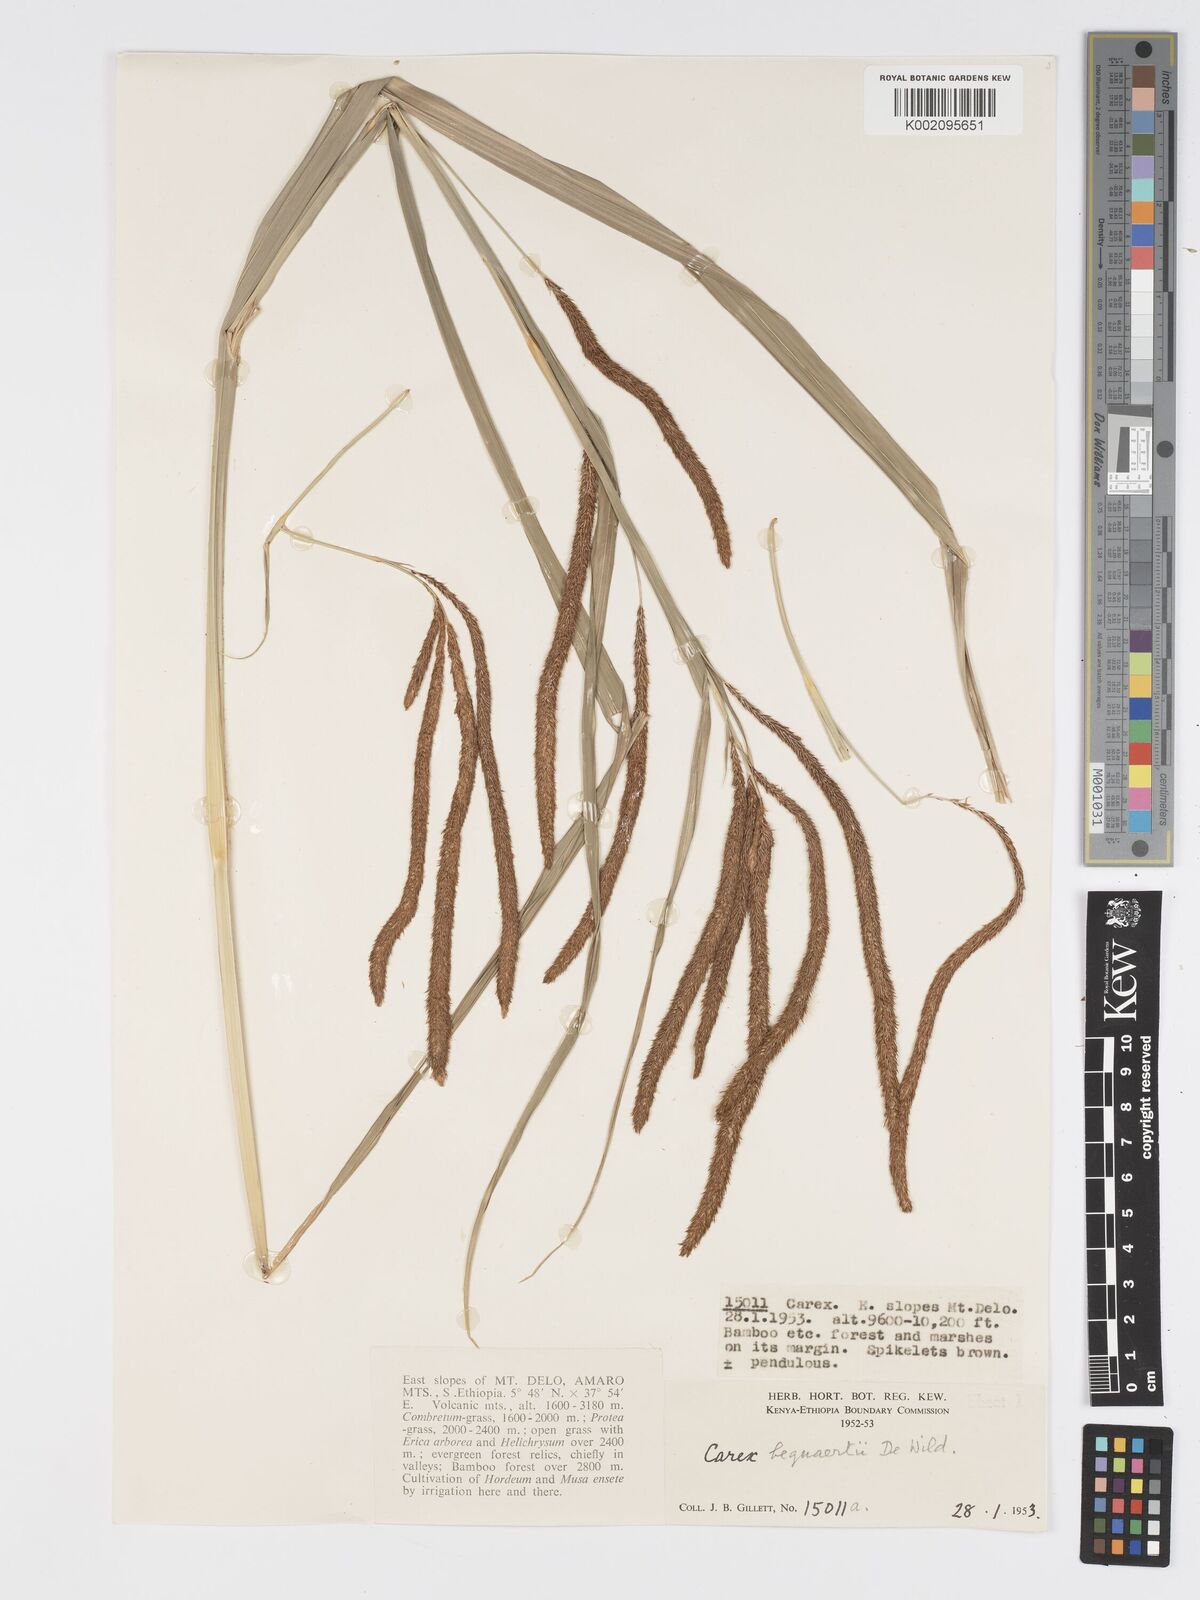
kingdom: Plantae
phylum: Tracheophyta
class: Liliopsida
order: Poales
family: Cyperaceae
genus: Carex
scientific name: Carex bequaertii
